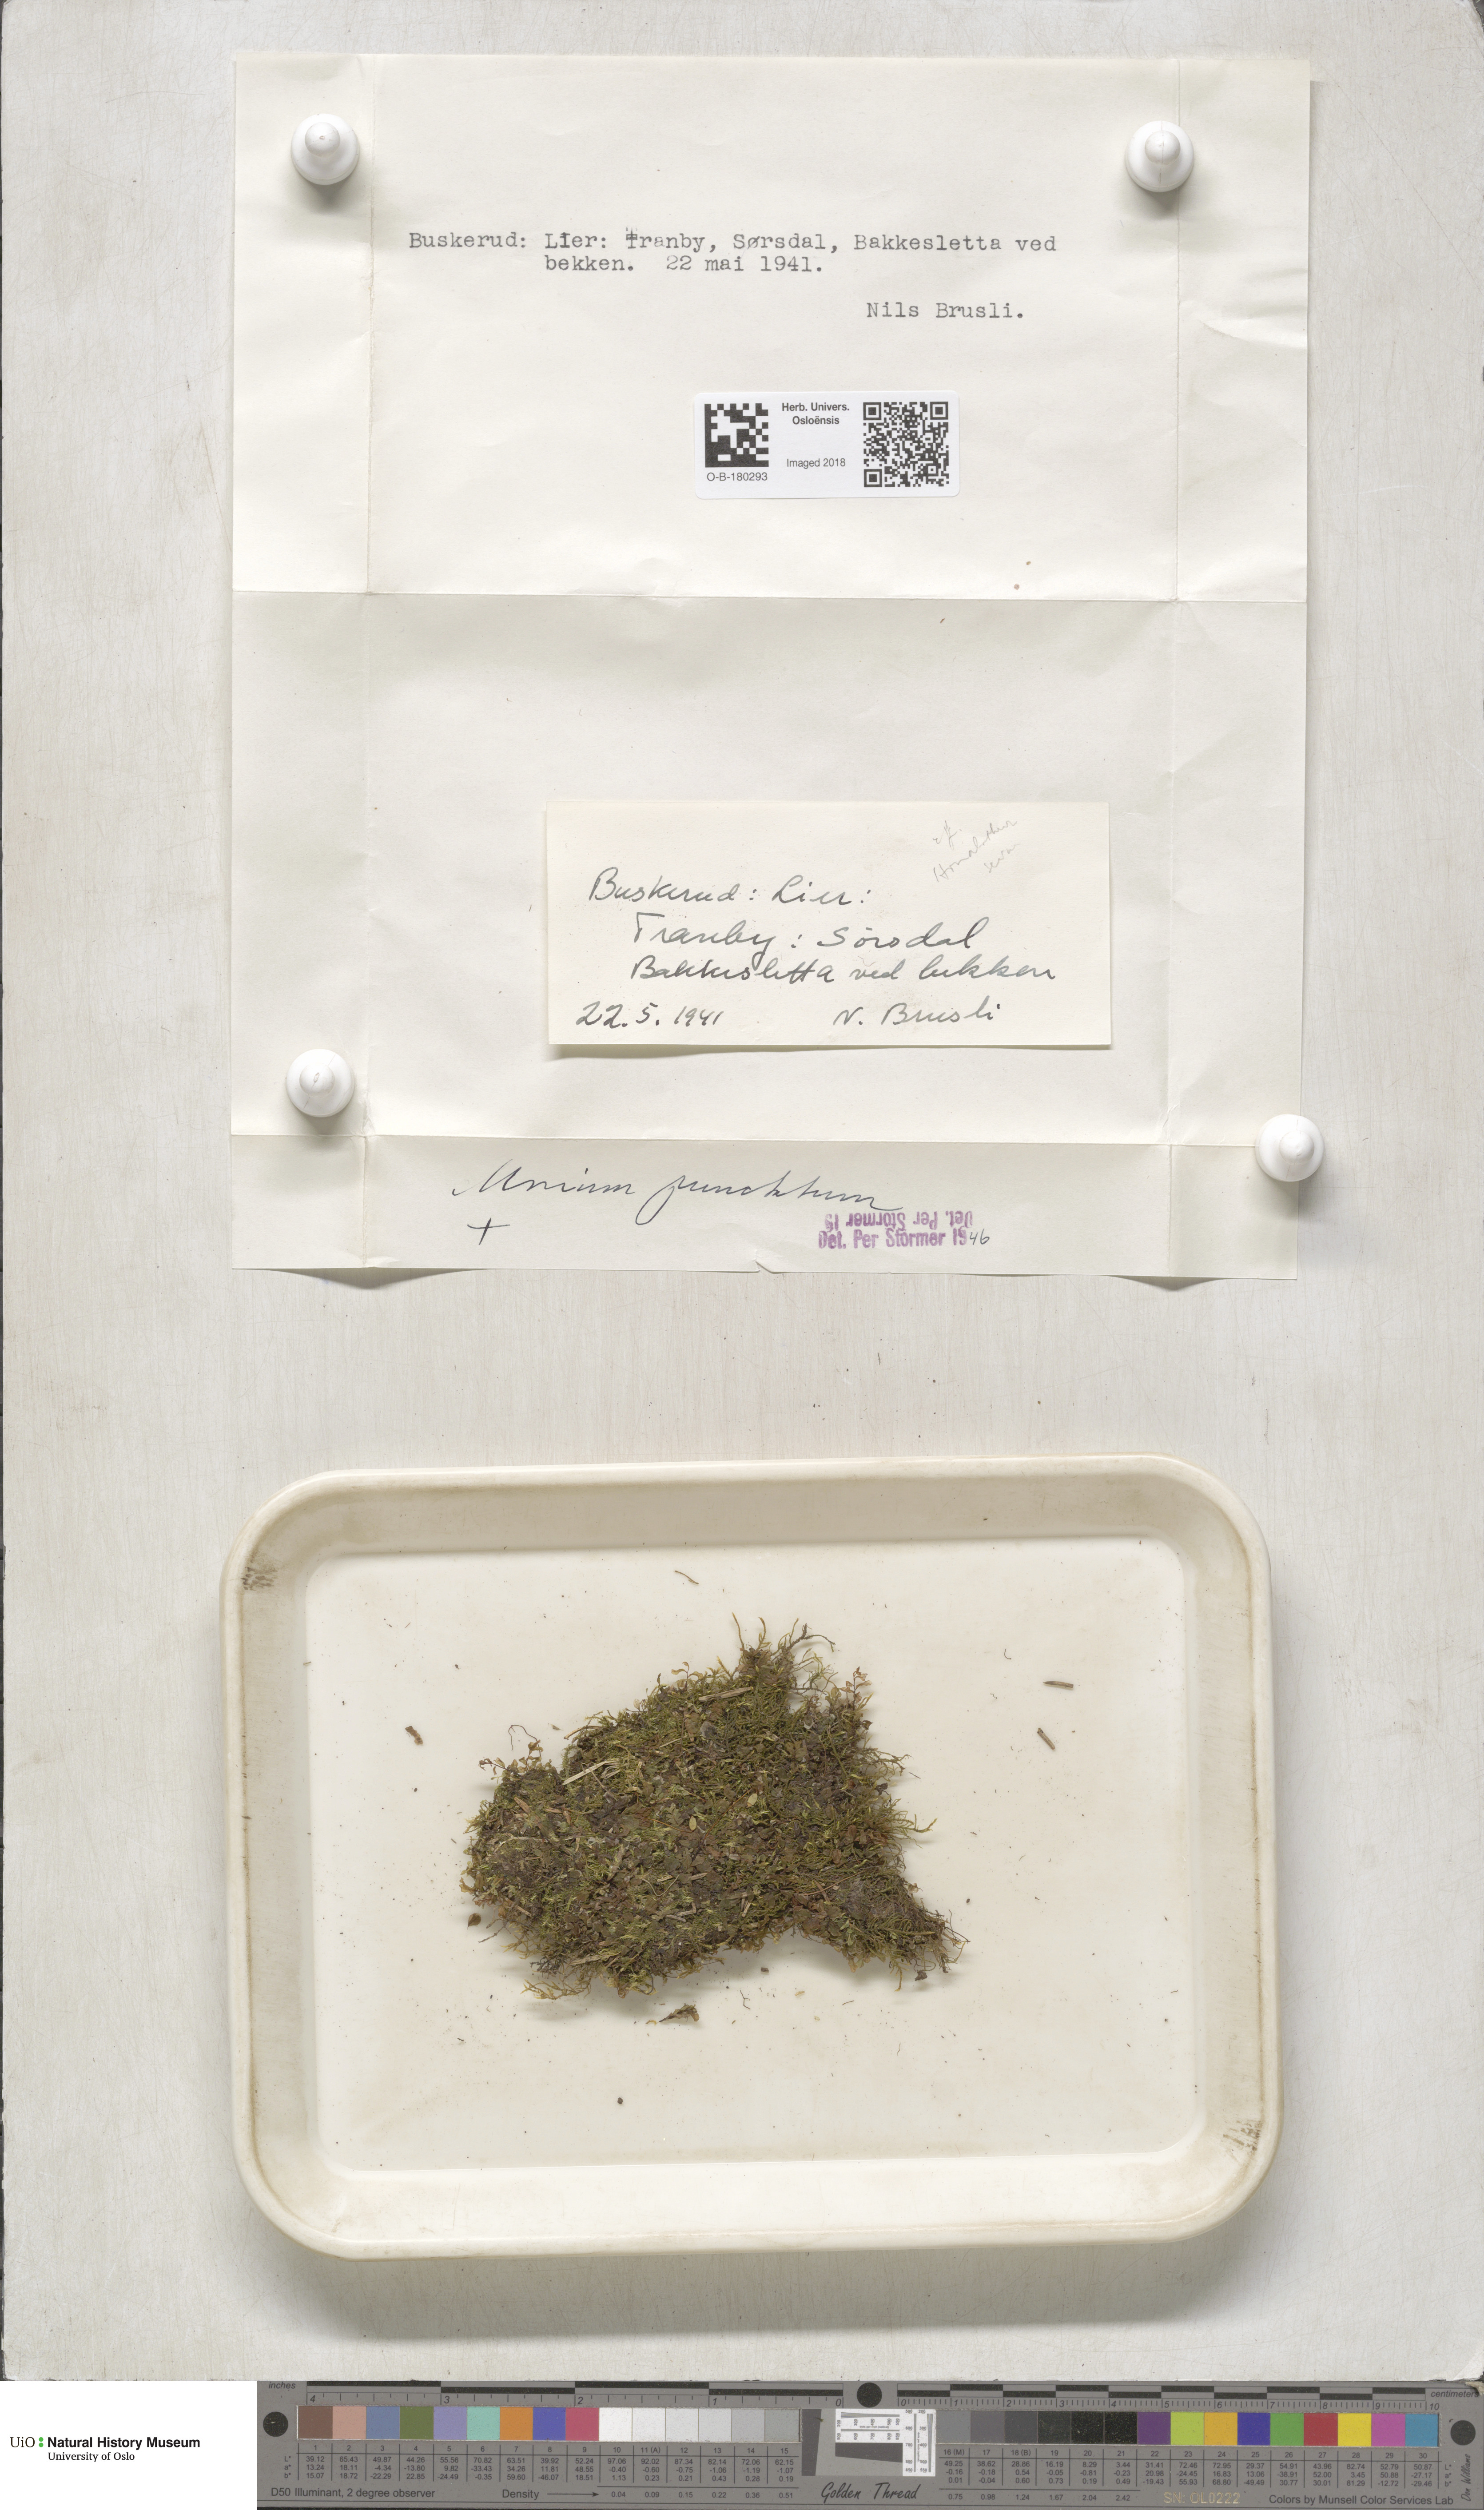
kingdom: Plantae
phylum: Bryophyta
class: Bryopsida
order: Bryales
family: Mniaceae
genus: Rhizomnium
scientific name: Rhizomnium punctatum
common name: Dotted leafy moss
